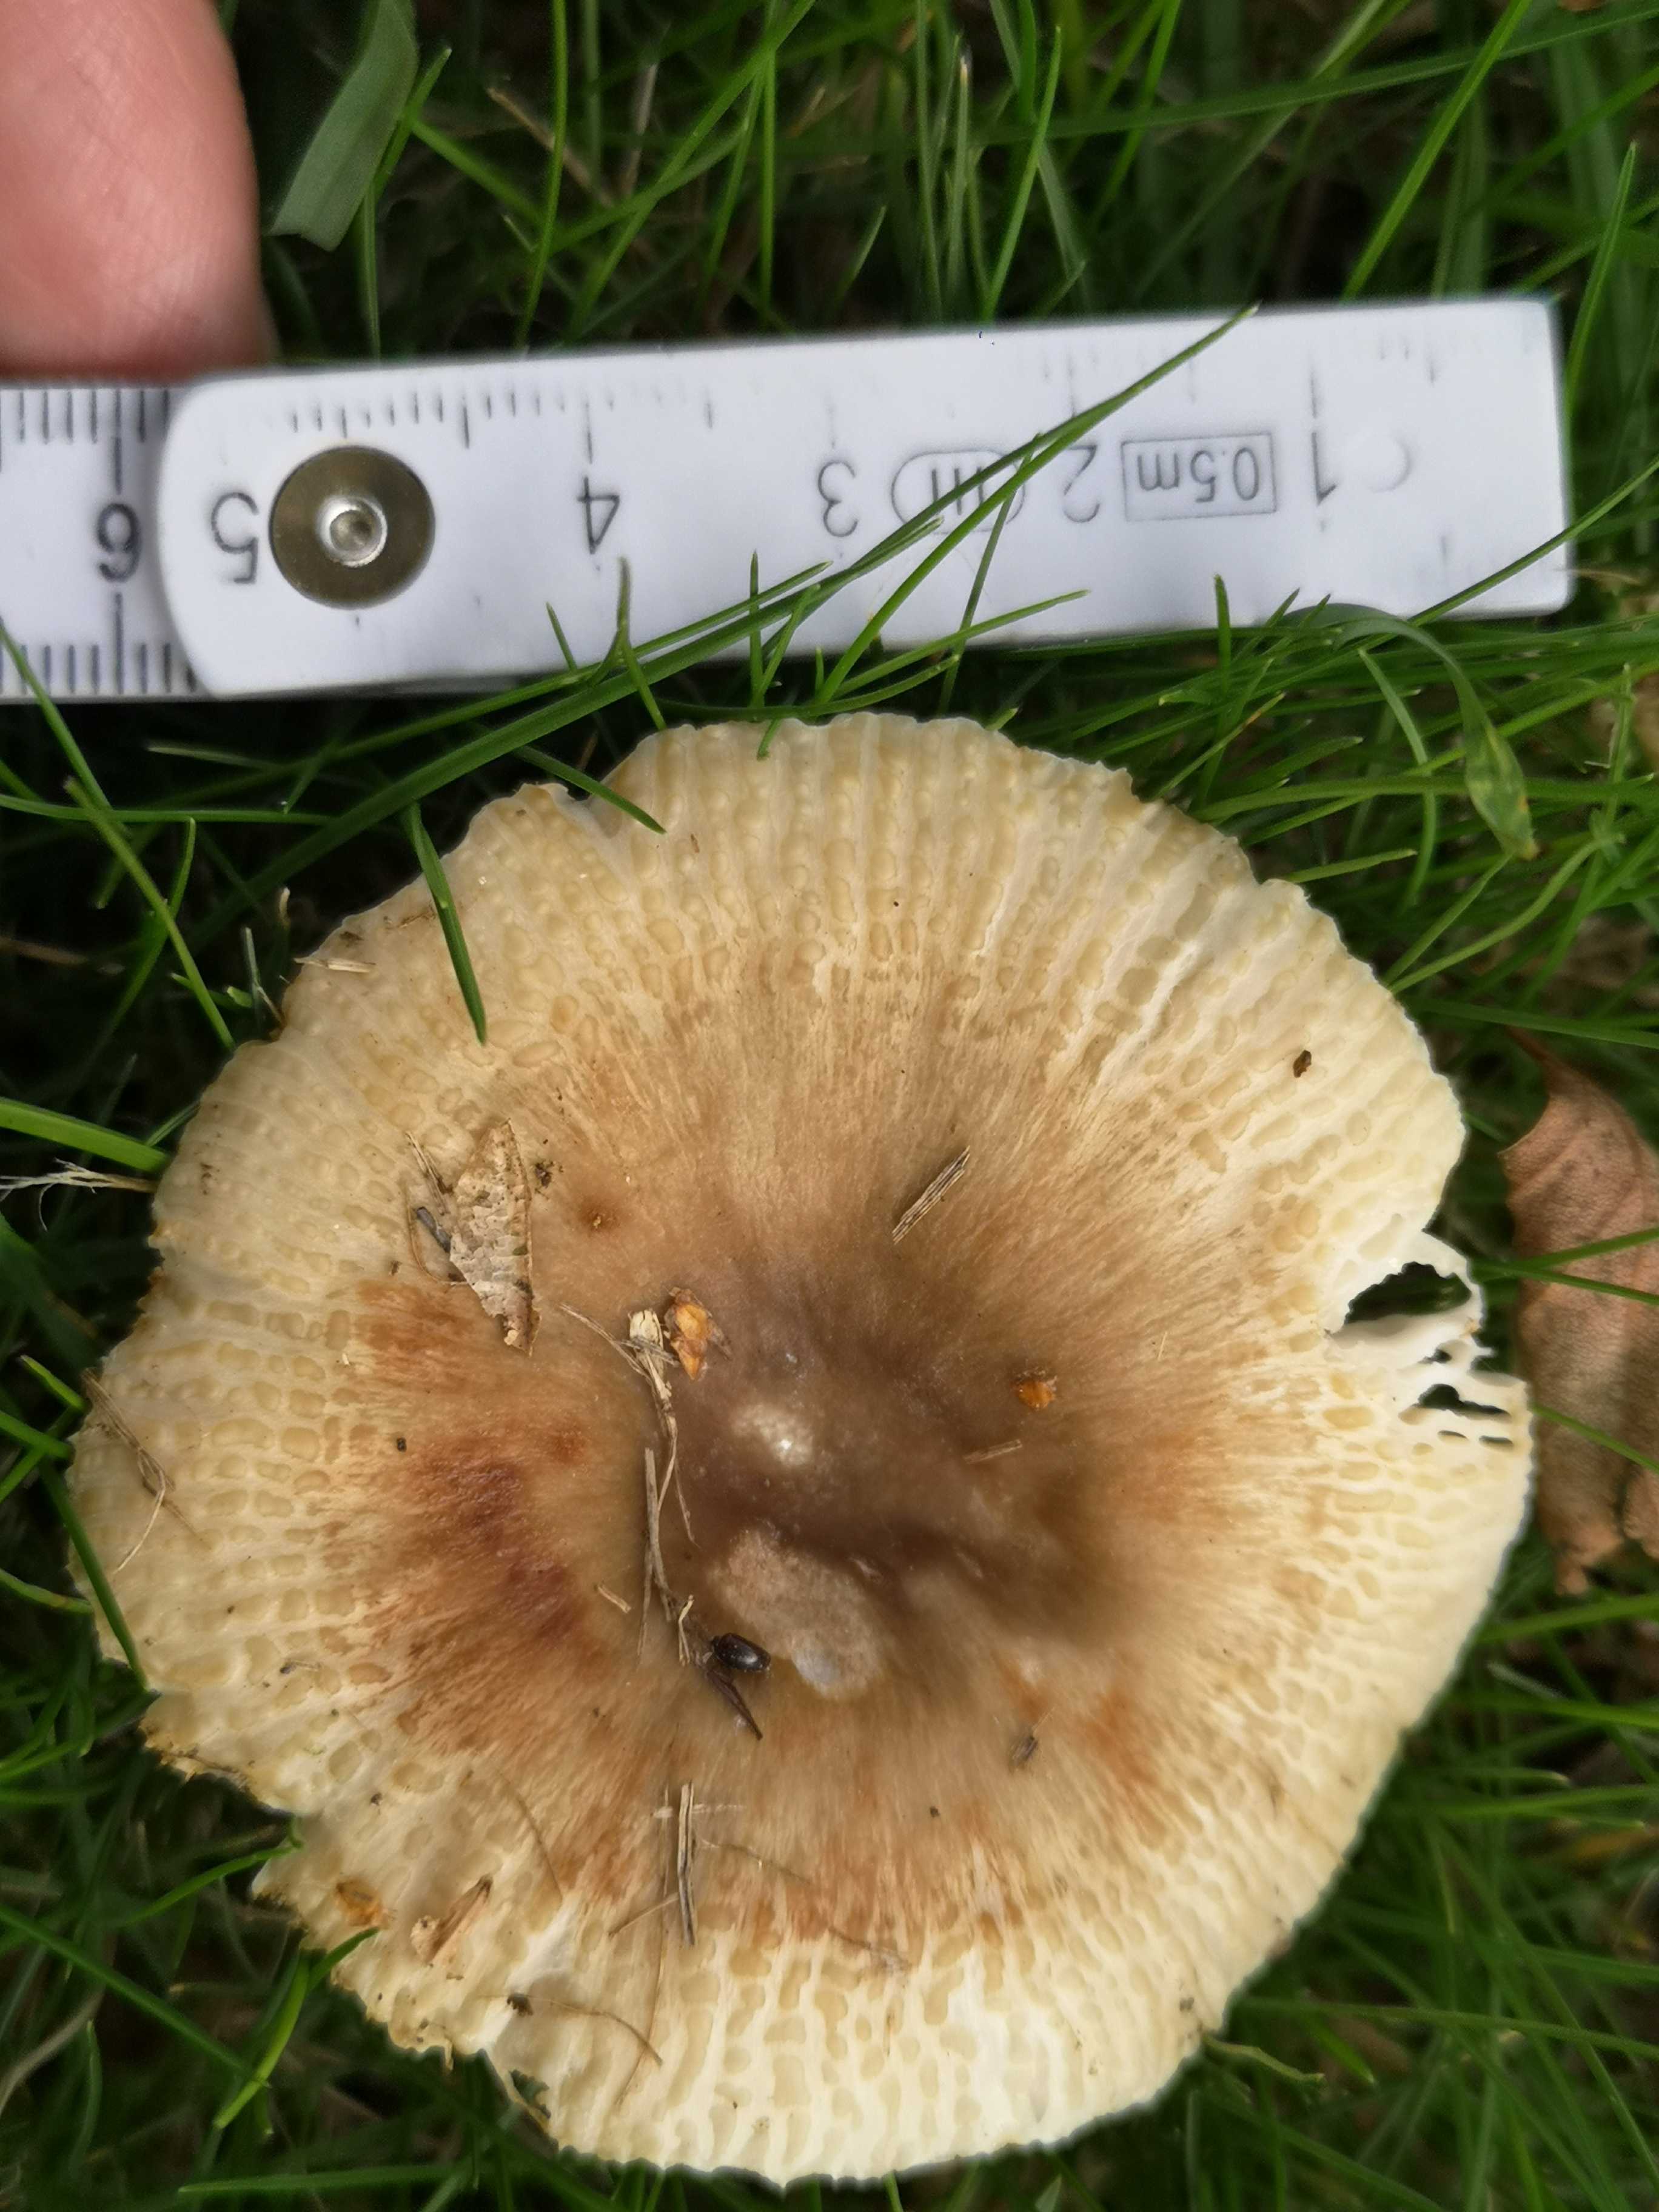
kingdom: Fungi
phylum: Basidiomycota
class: Agaricomycetes
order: Russulales
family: Russulaceae
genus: Russula
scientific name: Russula
